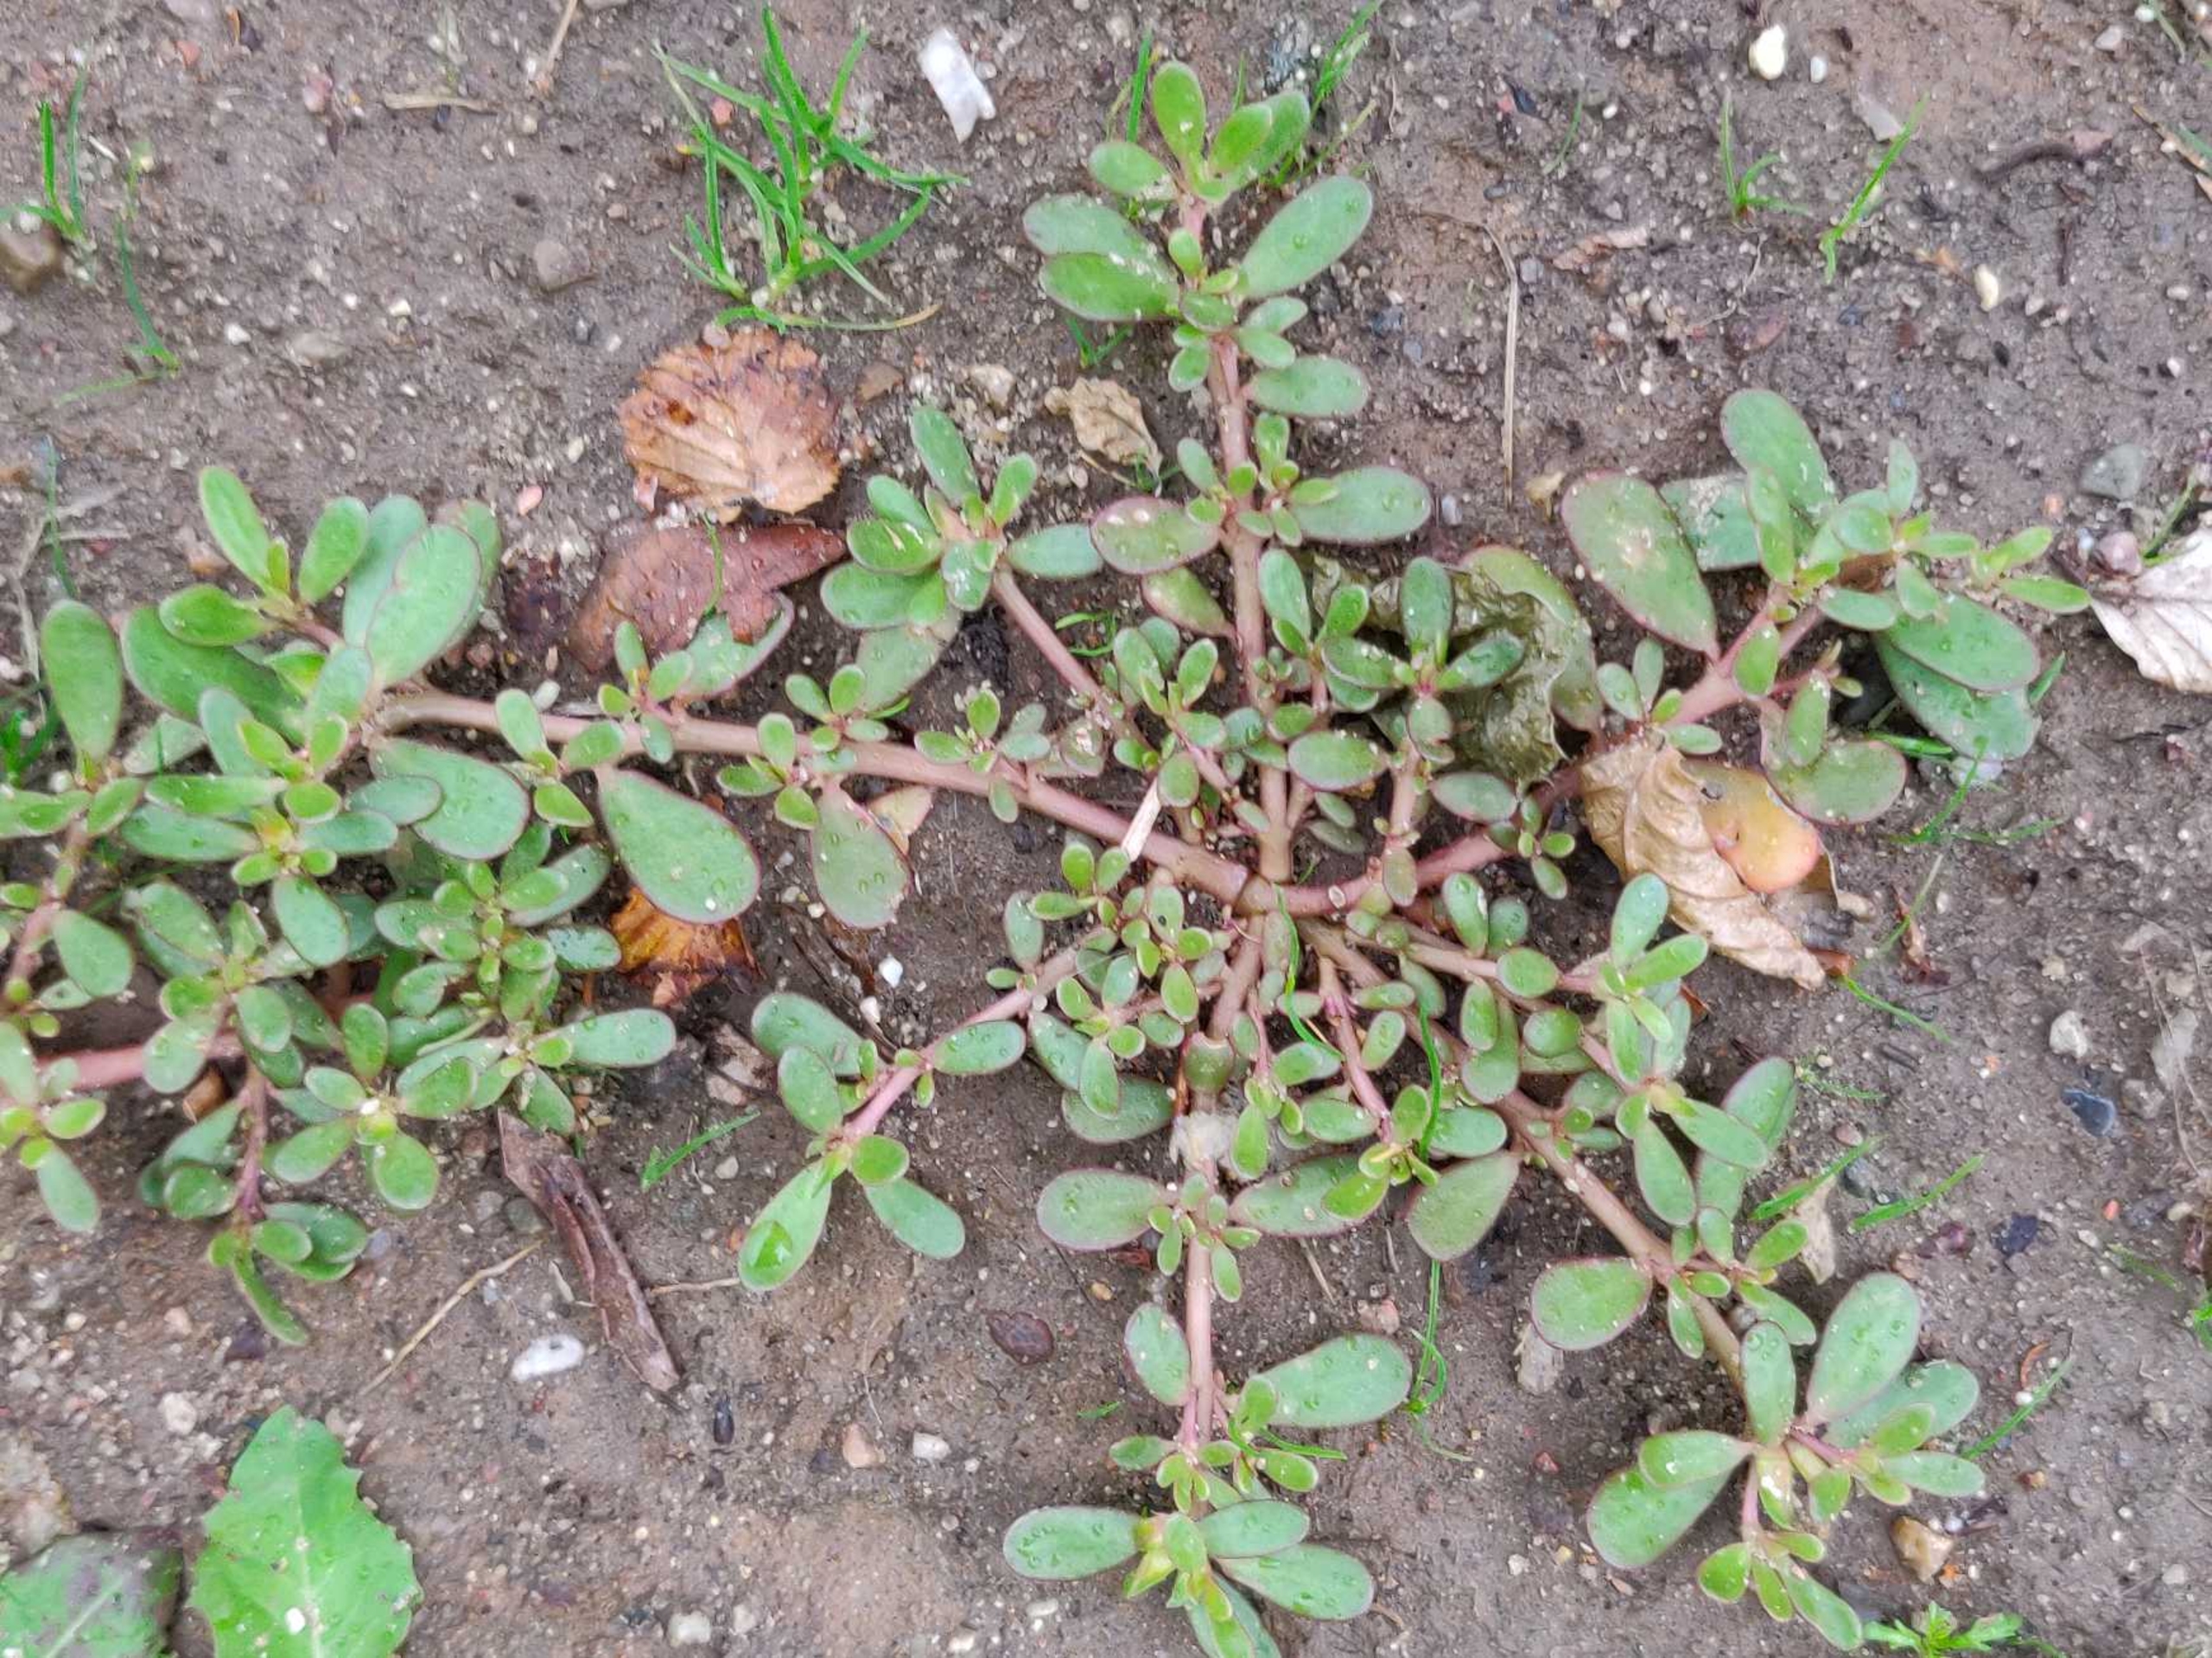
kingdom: Plantae
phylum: Tracheophyta
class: Magnoliopsida
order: Caryophyllales
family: Portulacaceae
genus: Portulaca
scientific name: Portulaca oleracea
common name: Portulak
